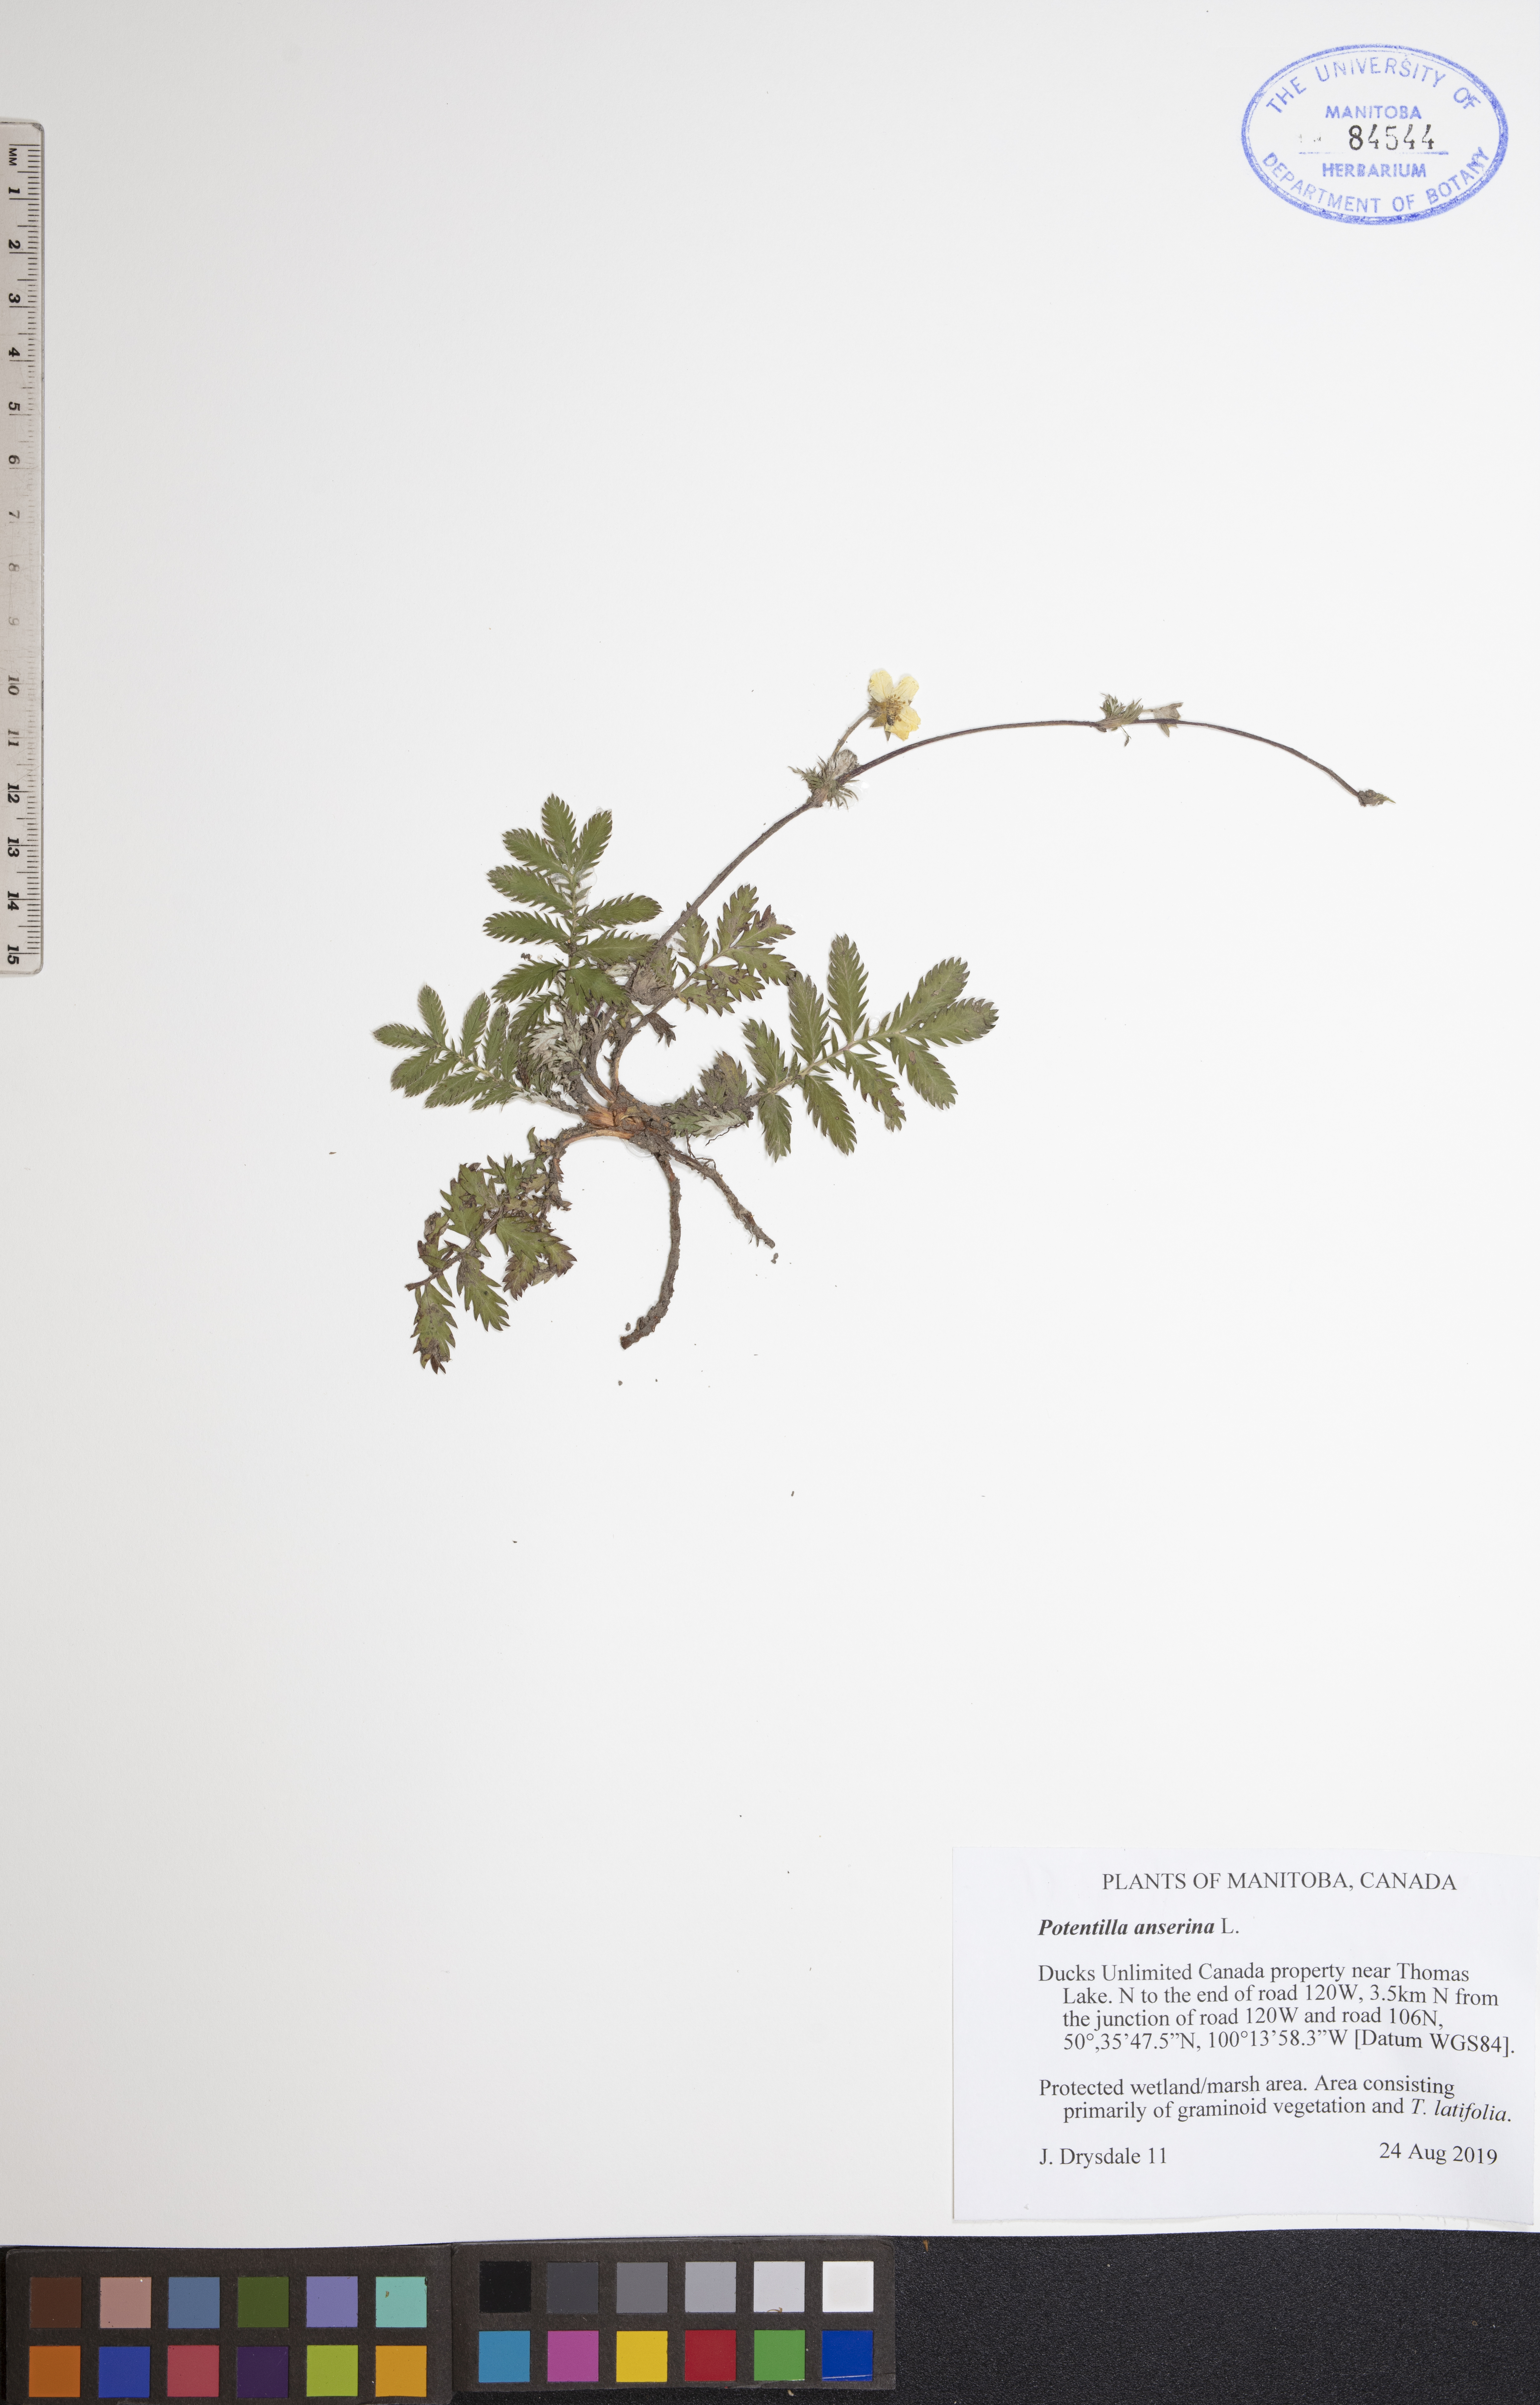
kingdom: Plantae
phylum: Tracheophyta
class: Magnoliopsida
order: Rosales
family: Rosaceae
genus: Argentina
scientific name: Argentina anserina
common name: Common silverweed
